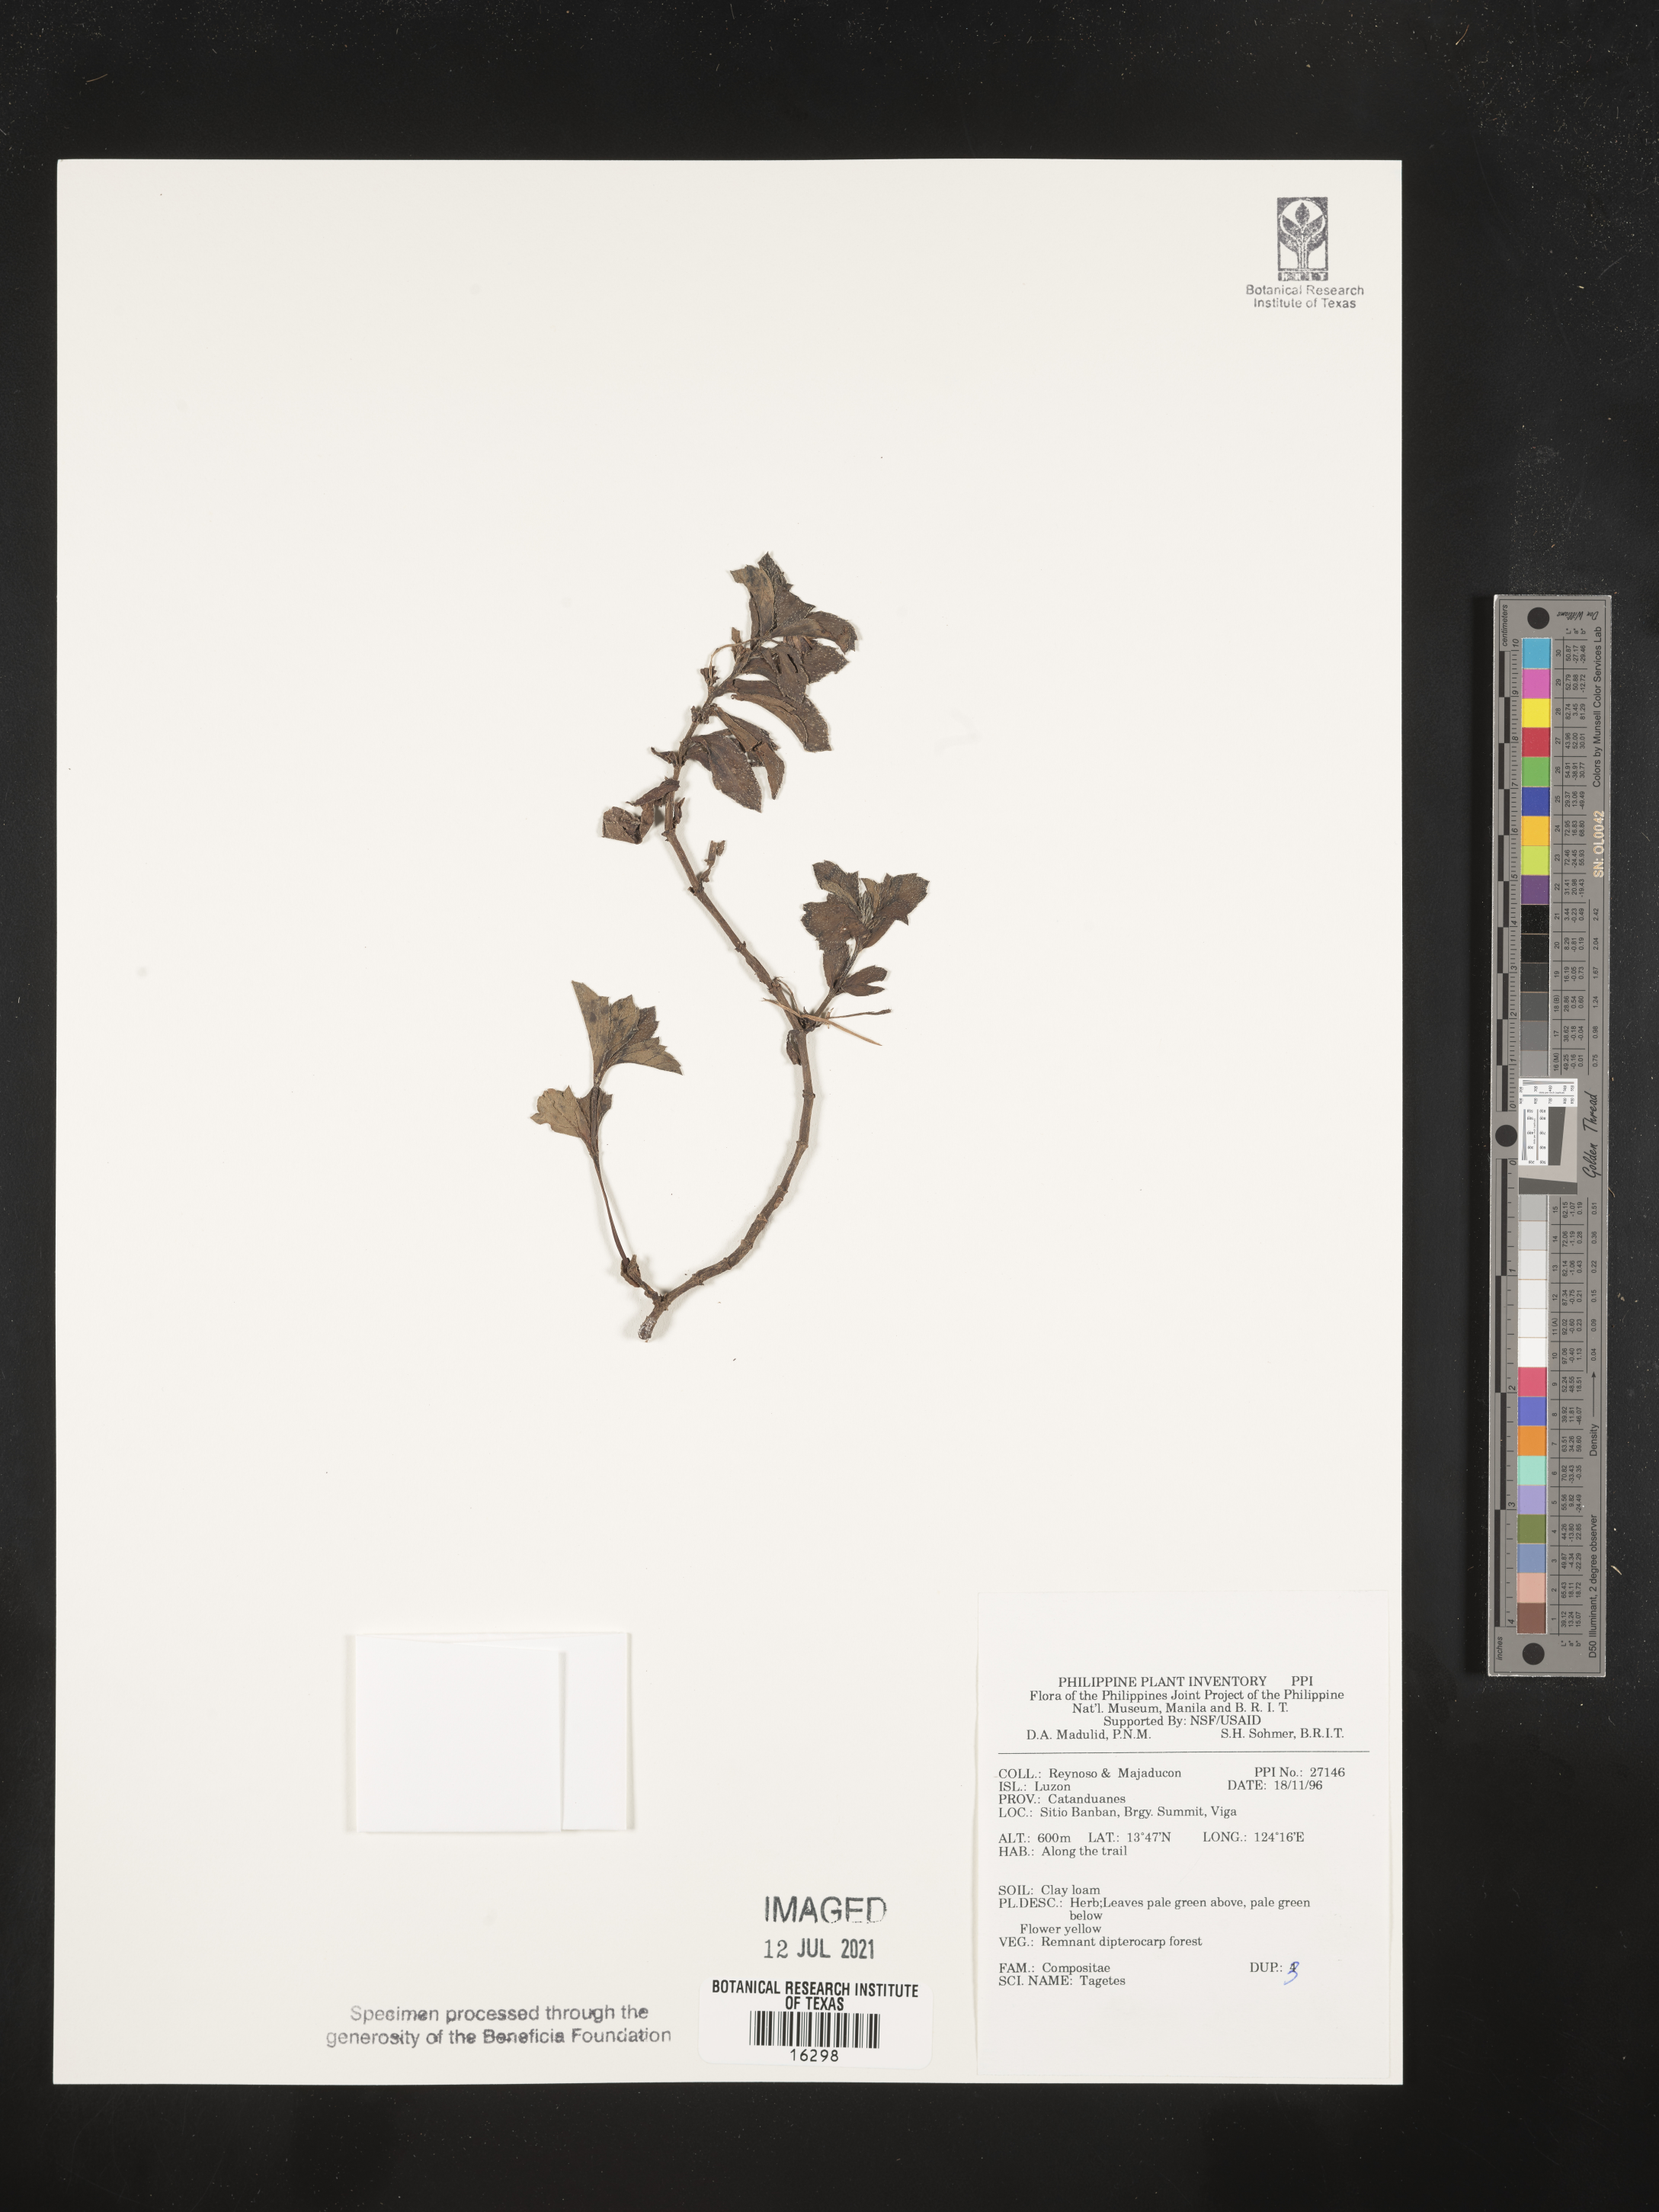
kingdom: Plantae
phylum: Tracheophyta
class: Magnoliopsida
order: Asterales
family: Asteraceae
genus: Tagetes
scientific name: Tagetes
